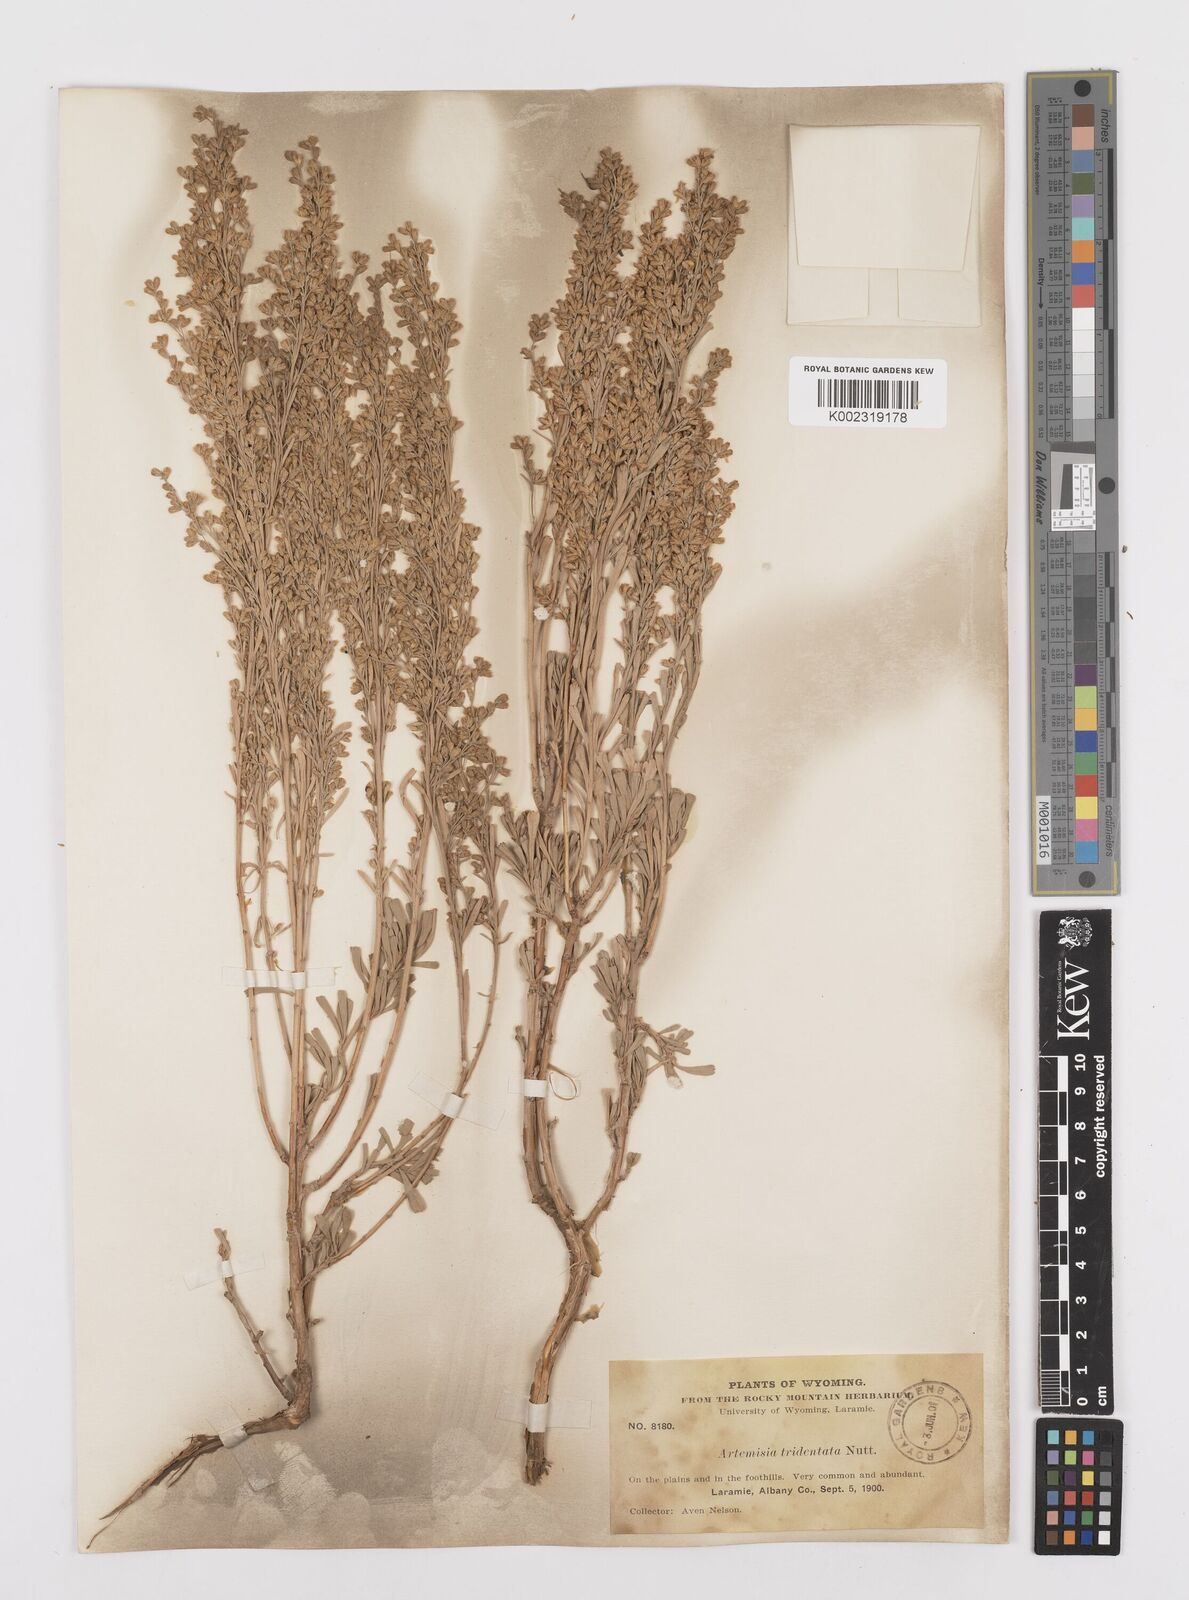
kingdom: Plantae
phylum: Tracheophyta
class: Magnoliopsida
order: Asterales
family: Asteraceae
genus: Artemisia
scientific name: Artemisia tridentata
